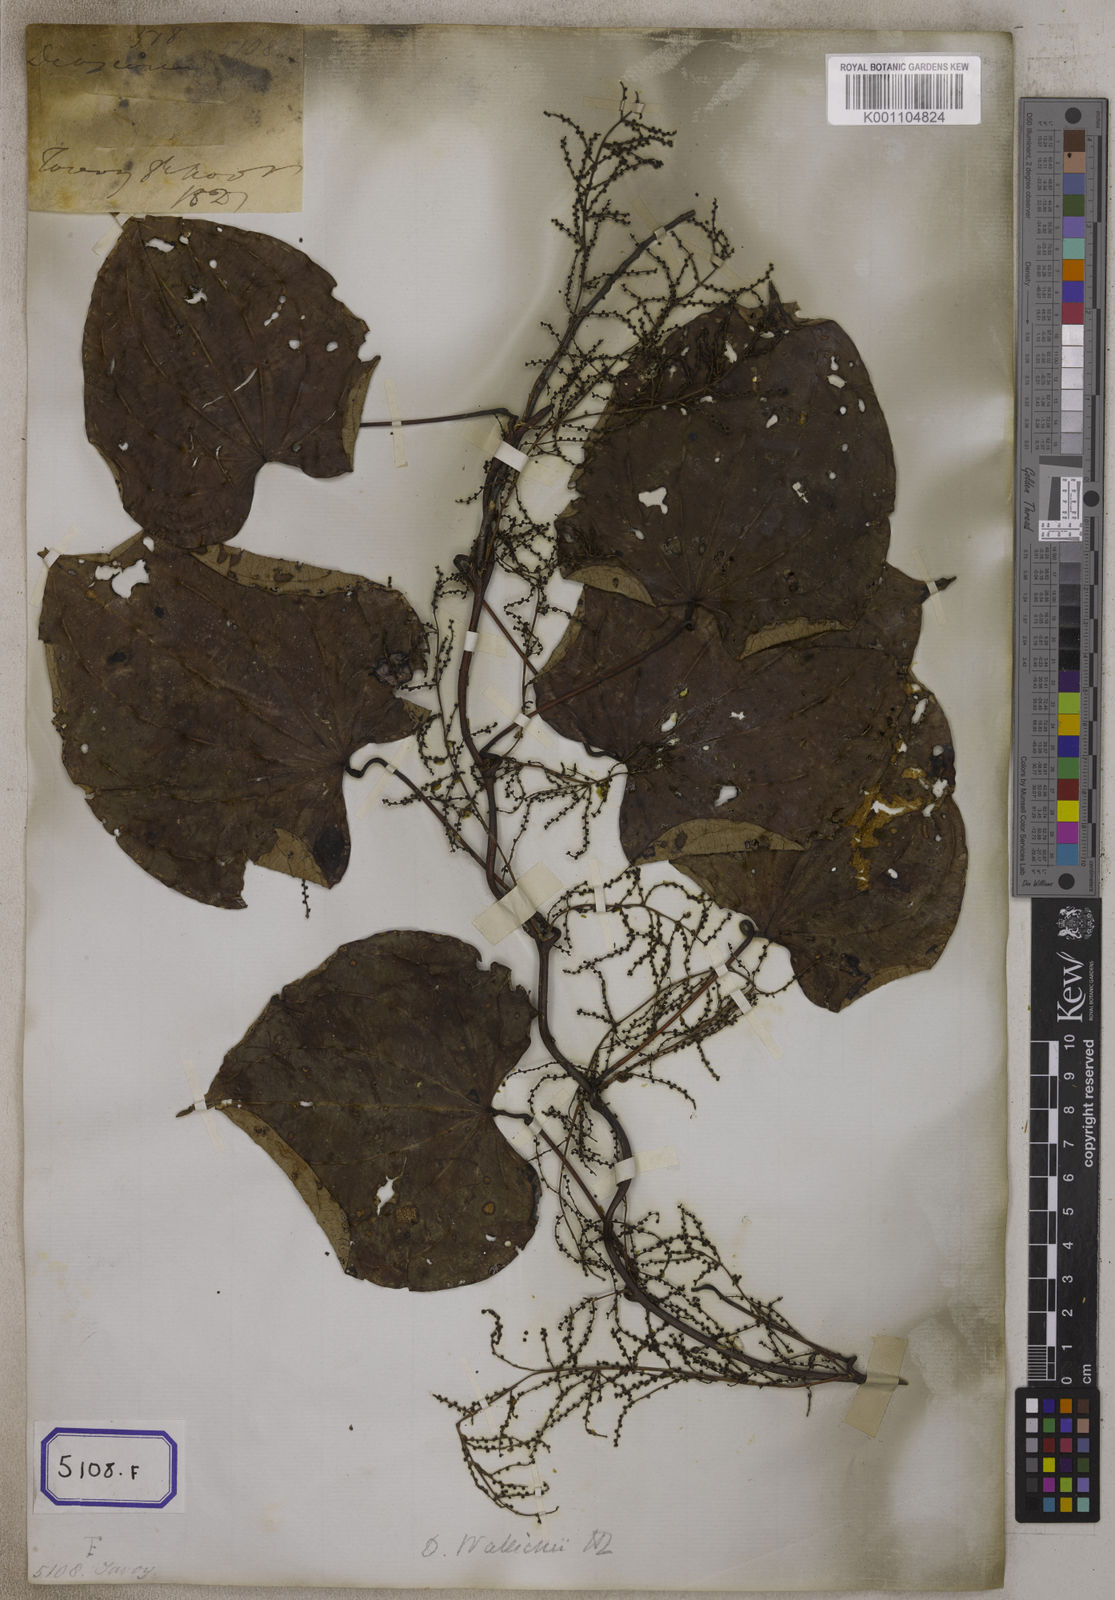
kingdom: Plantae
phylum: Tracheophyta
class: Liliopsida
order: Dioscoreales
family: Dioscoreaceae
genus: Dioscorea
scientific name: Dioscorea villosa
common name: Wild yam
